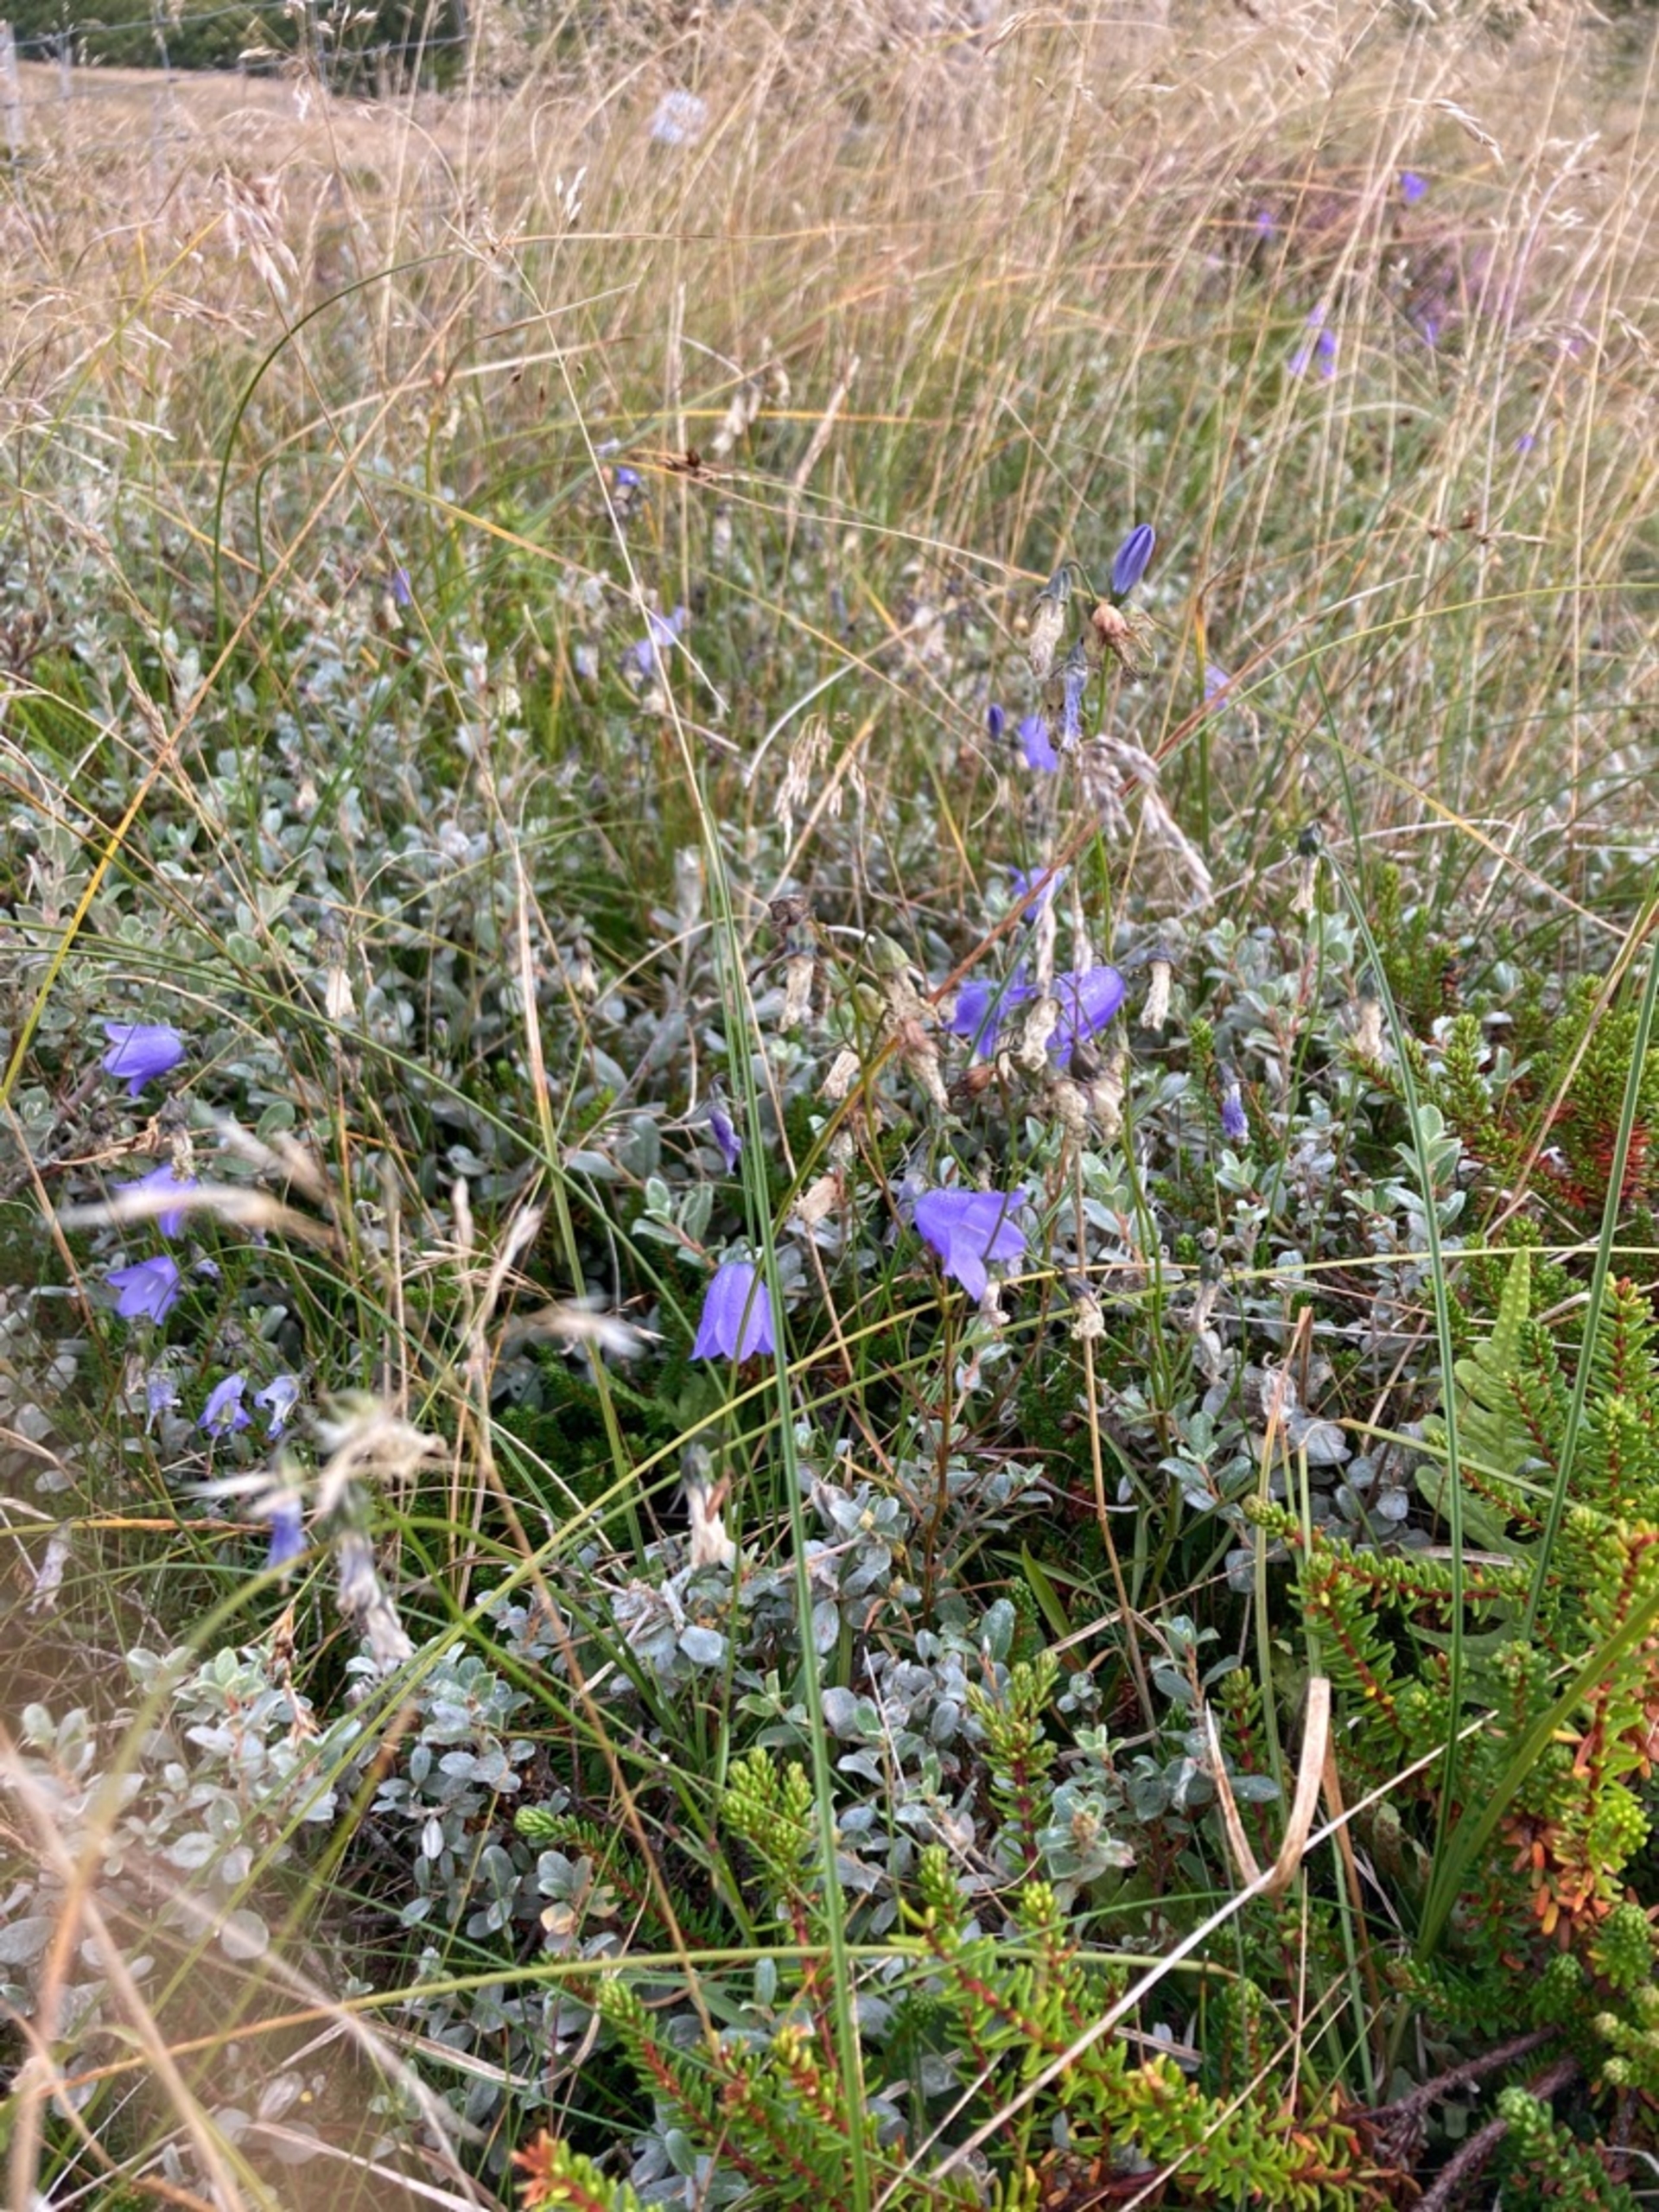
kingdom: Plantae
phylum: Tracheophyta
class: Magnoliopsida
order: Asterales
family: Campanulaceae
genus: Campanula
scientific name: Campanula rotundifolia
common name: Liden klokke
